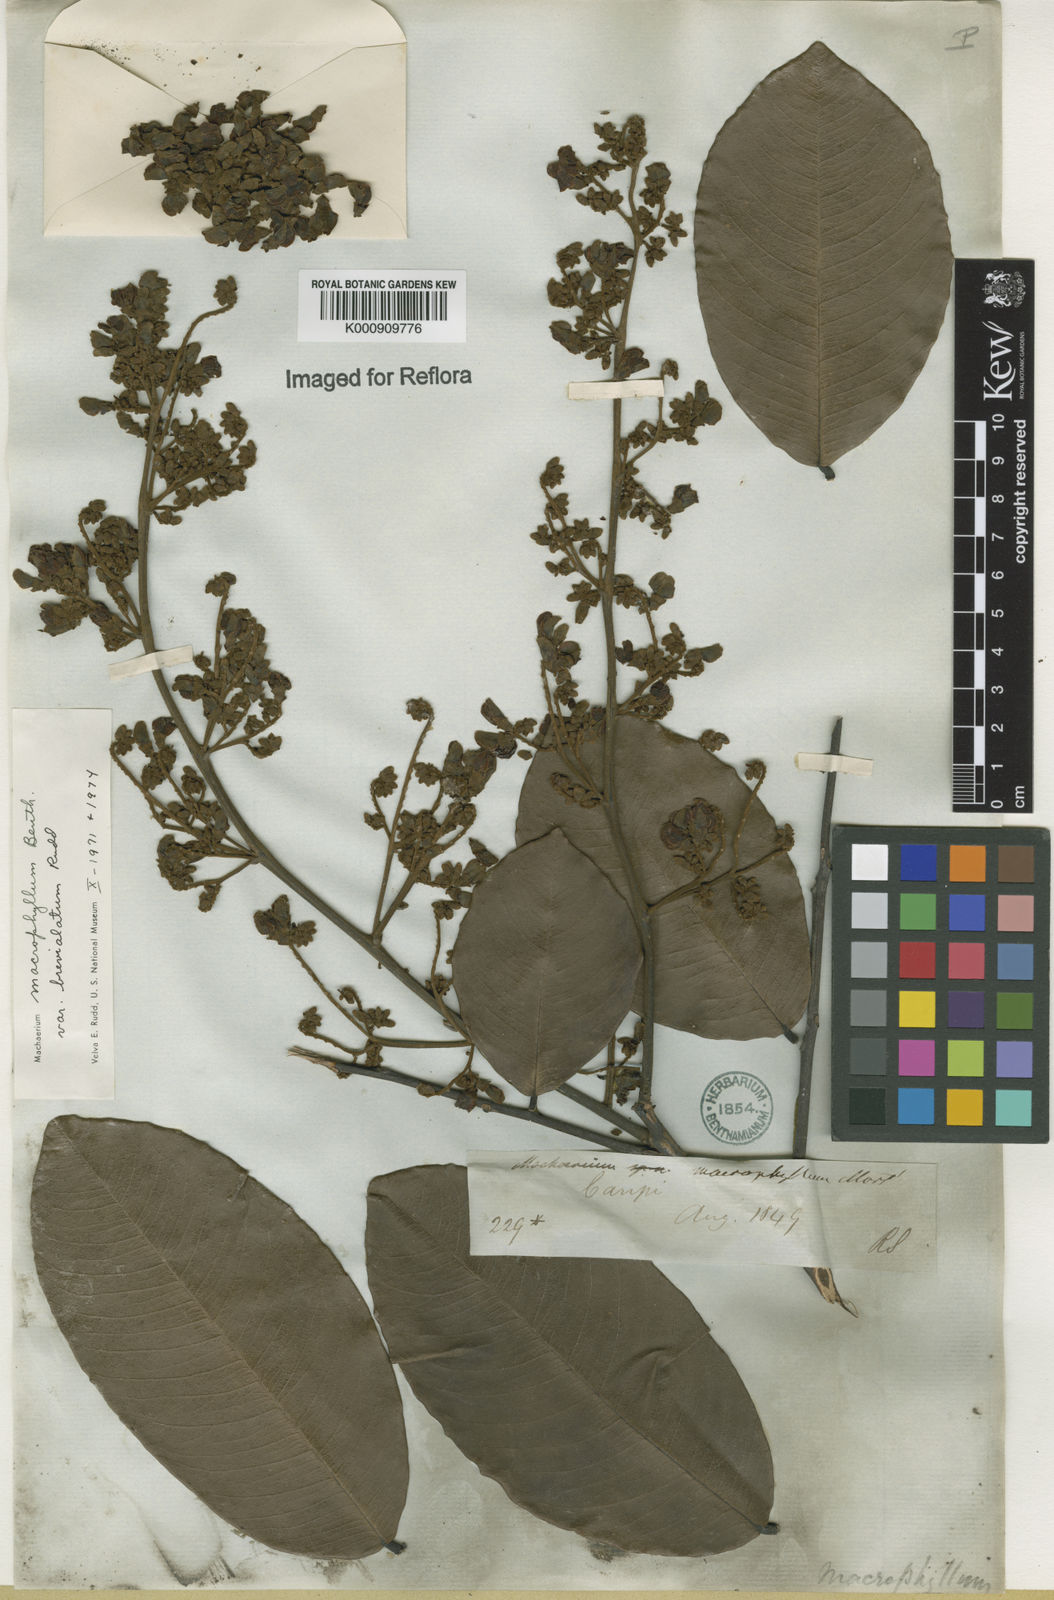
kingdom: Plantae
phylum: Tracheophyta
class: Magnoliopsida
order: Fabales
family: Fabaceae
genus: Machaerium
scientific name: Machaerium macrophyllum
